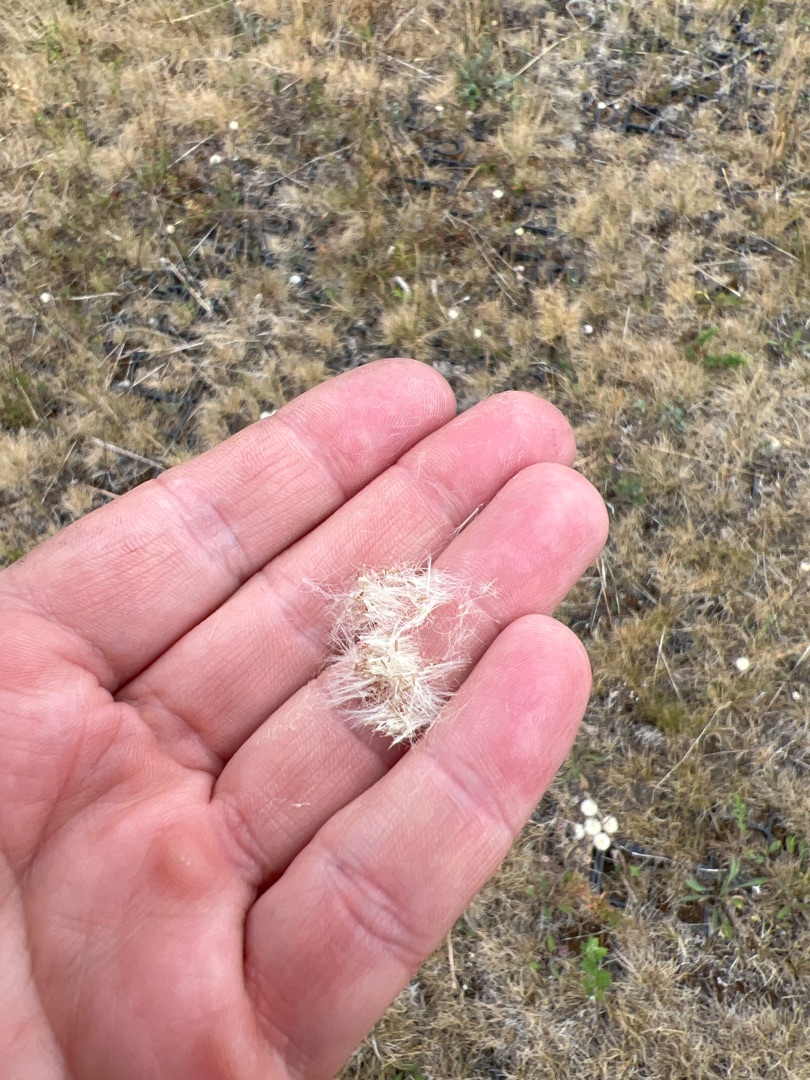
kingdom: Plantae
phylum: Tracheophyta
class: Magnoliopsida
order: Asterales
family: Asteraceae
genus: Erigeron
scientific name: Erigeron acris
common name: Bitter bakkestjerne
